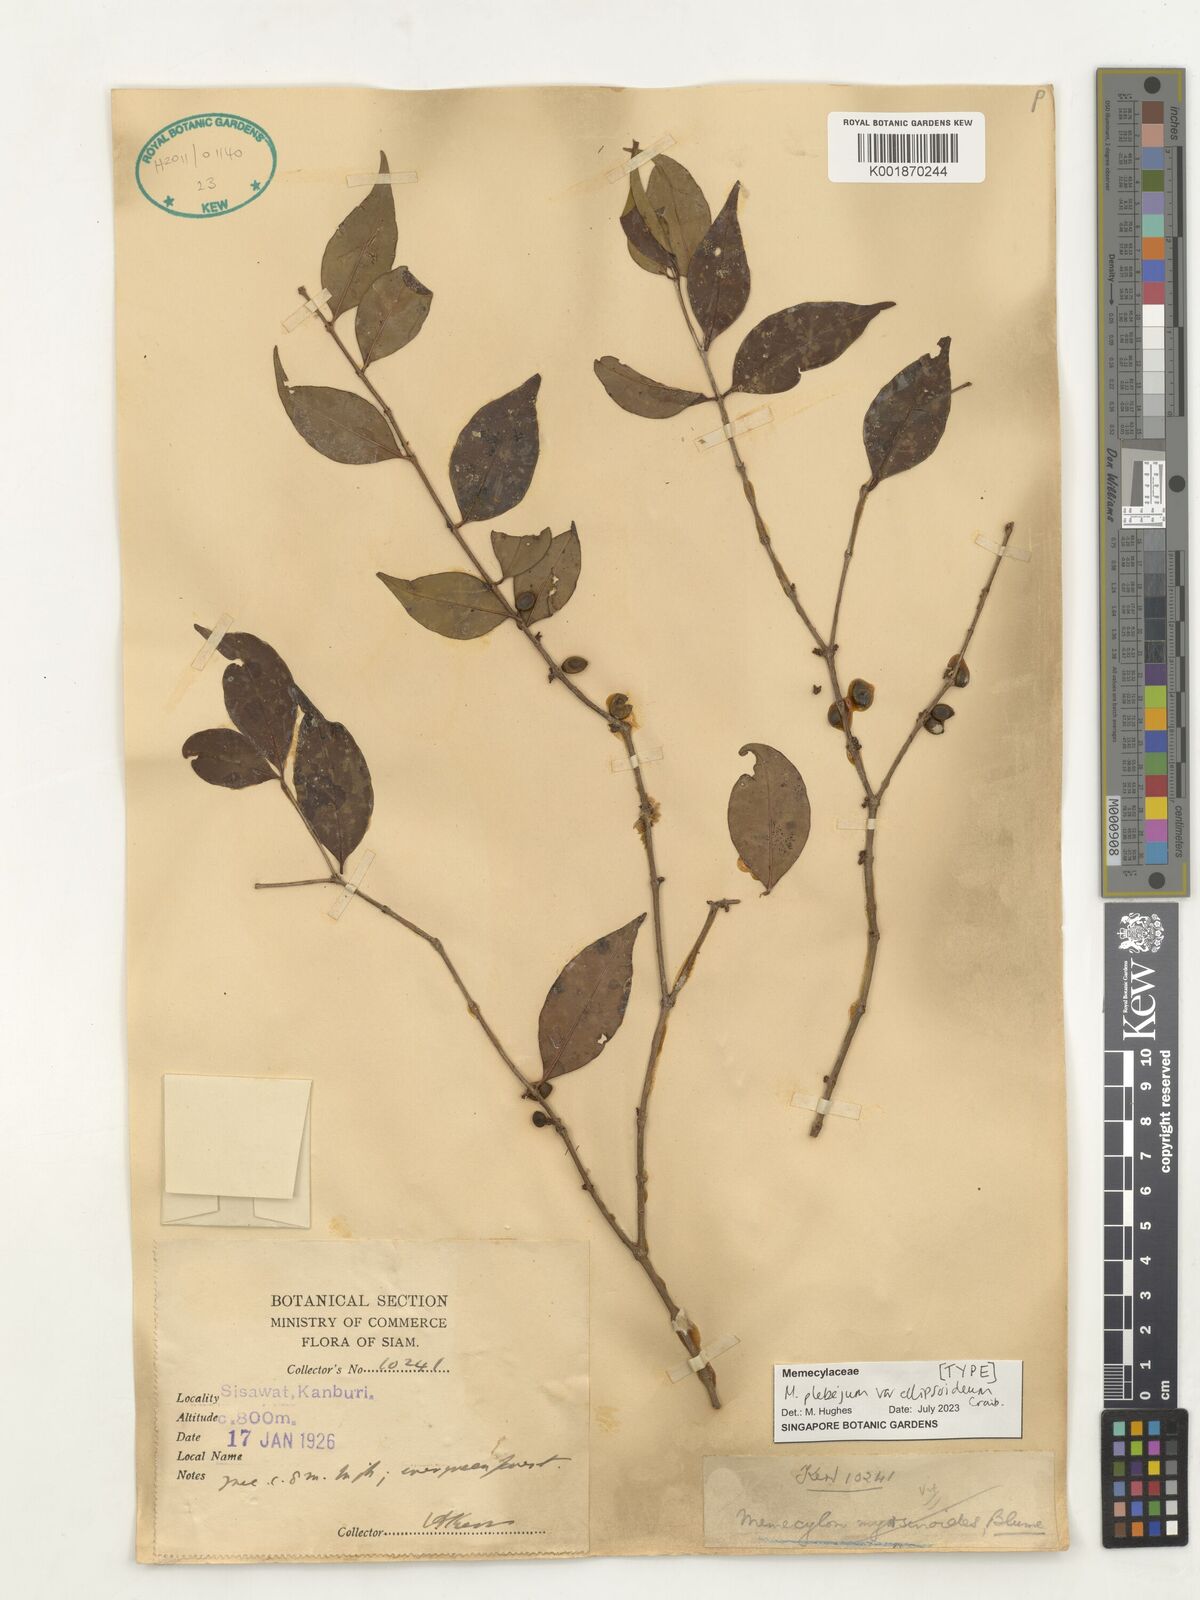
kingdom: Plantae
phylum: Tracheophyta
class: Magnoliopsida
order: Myrtales
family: Melastomataceae
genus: Memecylon
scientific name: Memecylon plebejum
